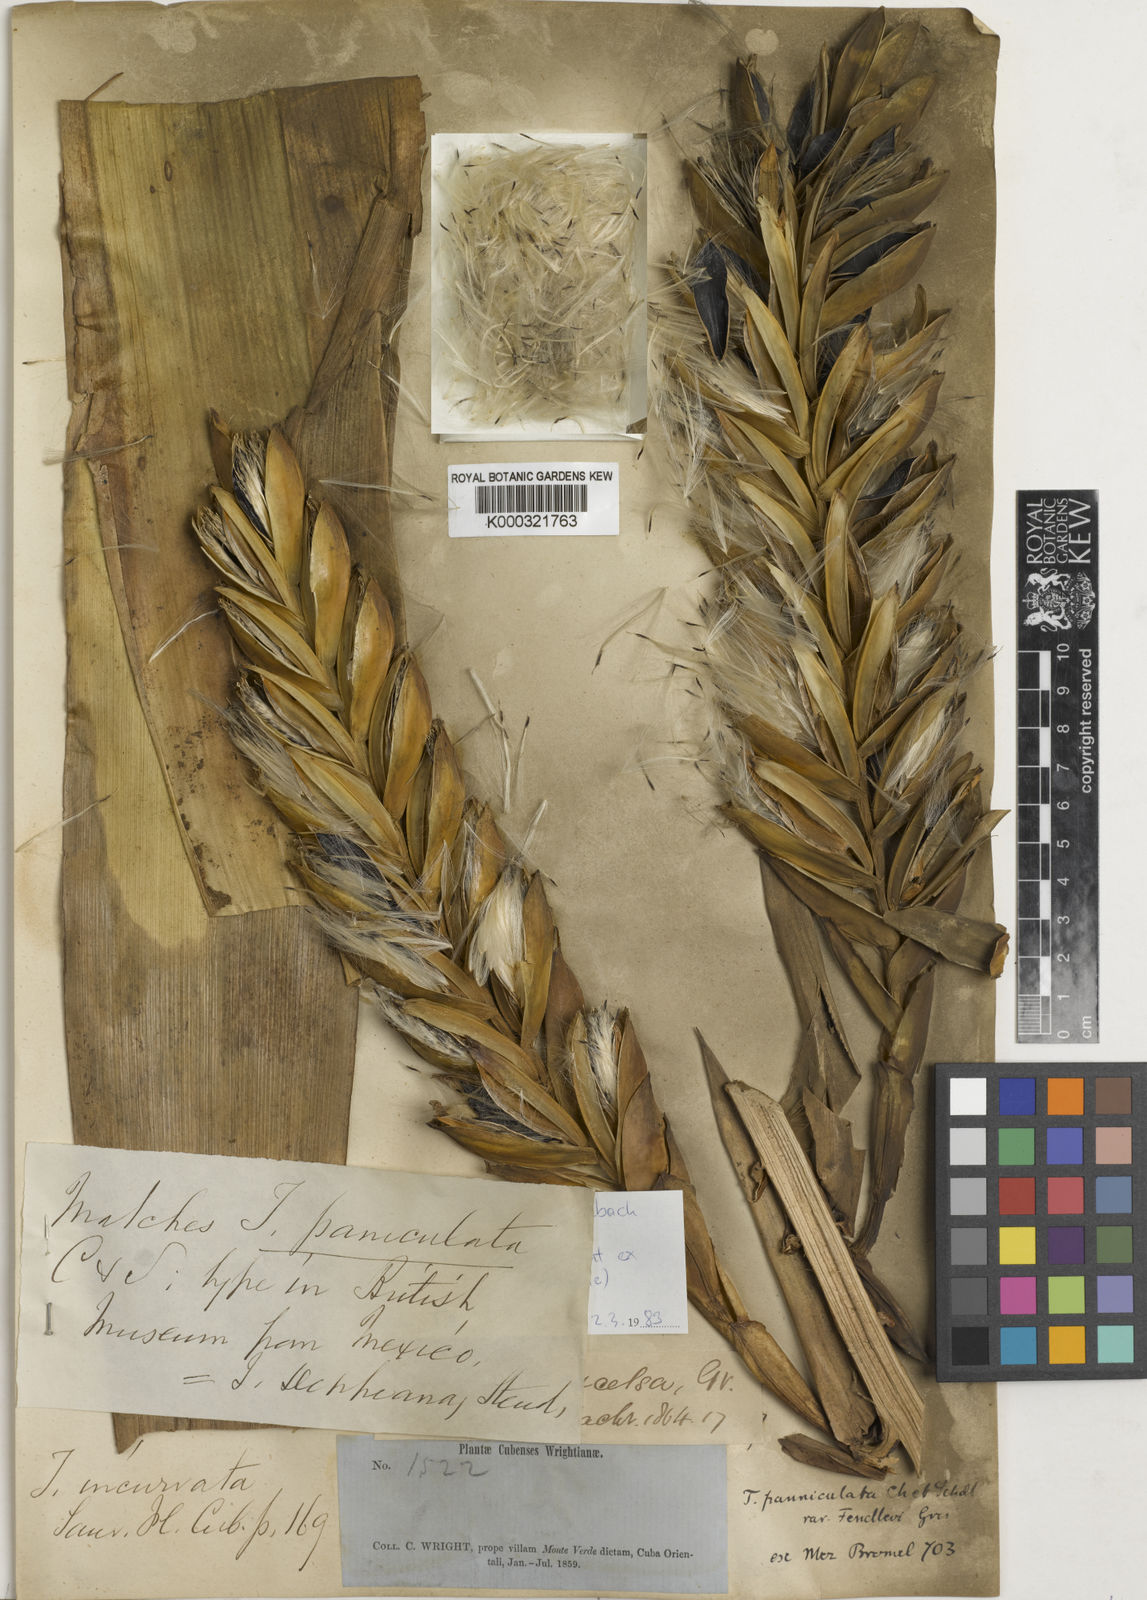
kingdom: Plantae
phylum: Tracheophyta
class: Liliopsida
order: Poales
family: Bromeliaceae
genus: Tillandsia
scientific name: Tillandsia fendleri
